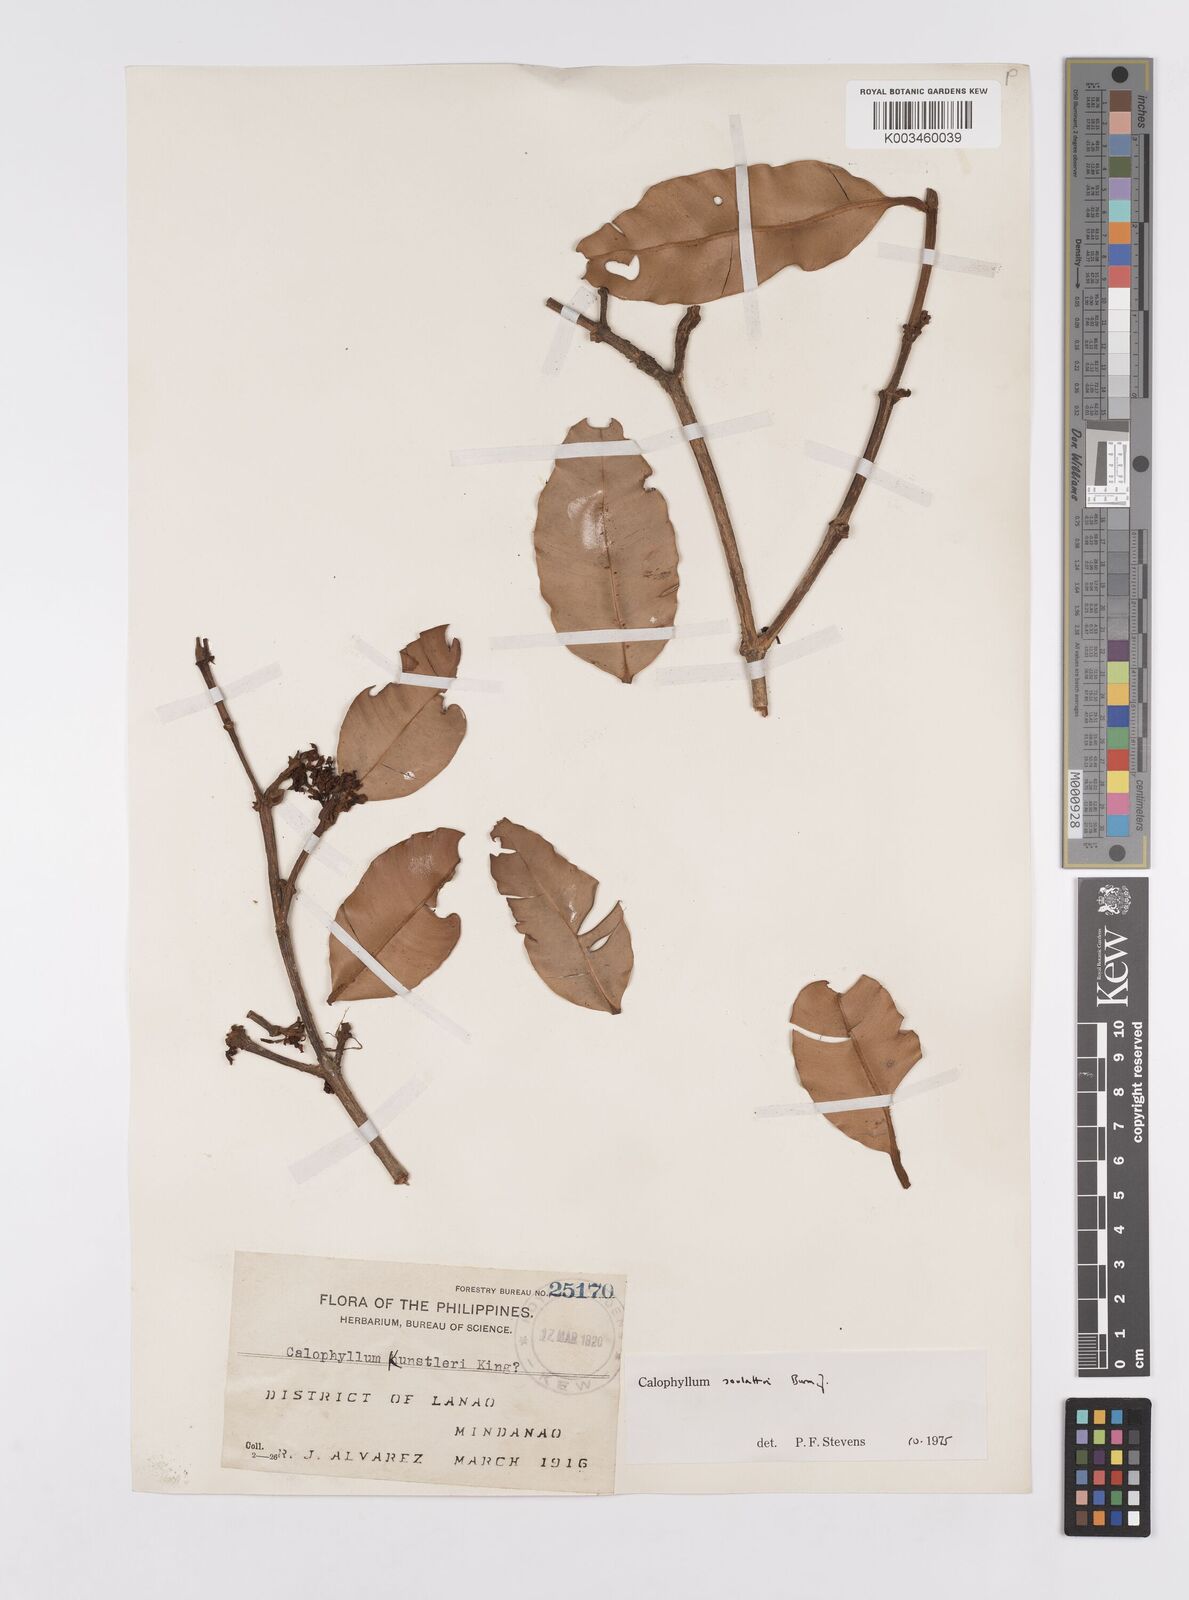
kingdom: Plantae
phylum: Tracheophyta
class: Magnoliopsida
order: Malpighiales
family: Calophyllaceae
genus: Calophyllum
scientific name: Calophyllum soulattri
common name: Bitangoor boonot
